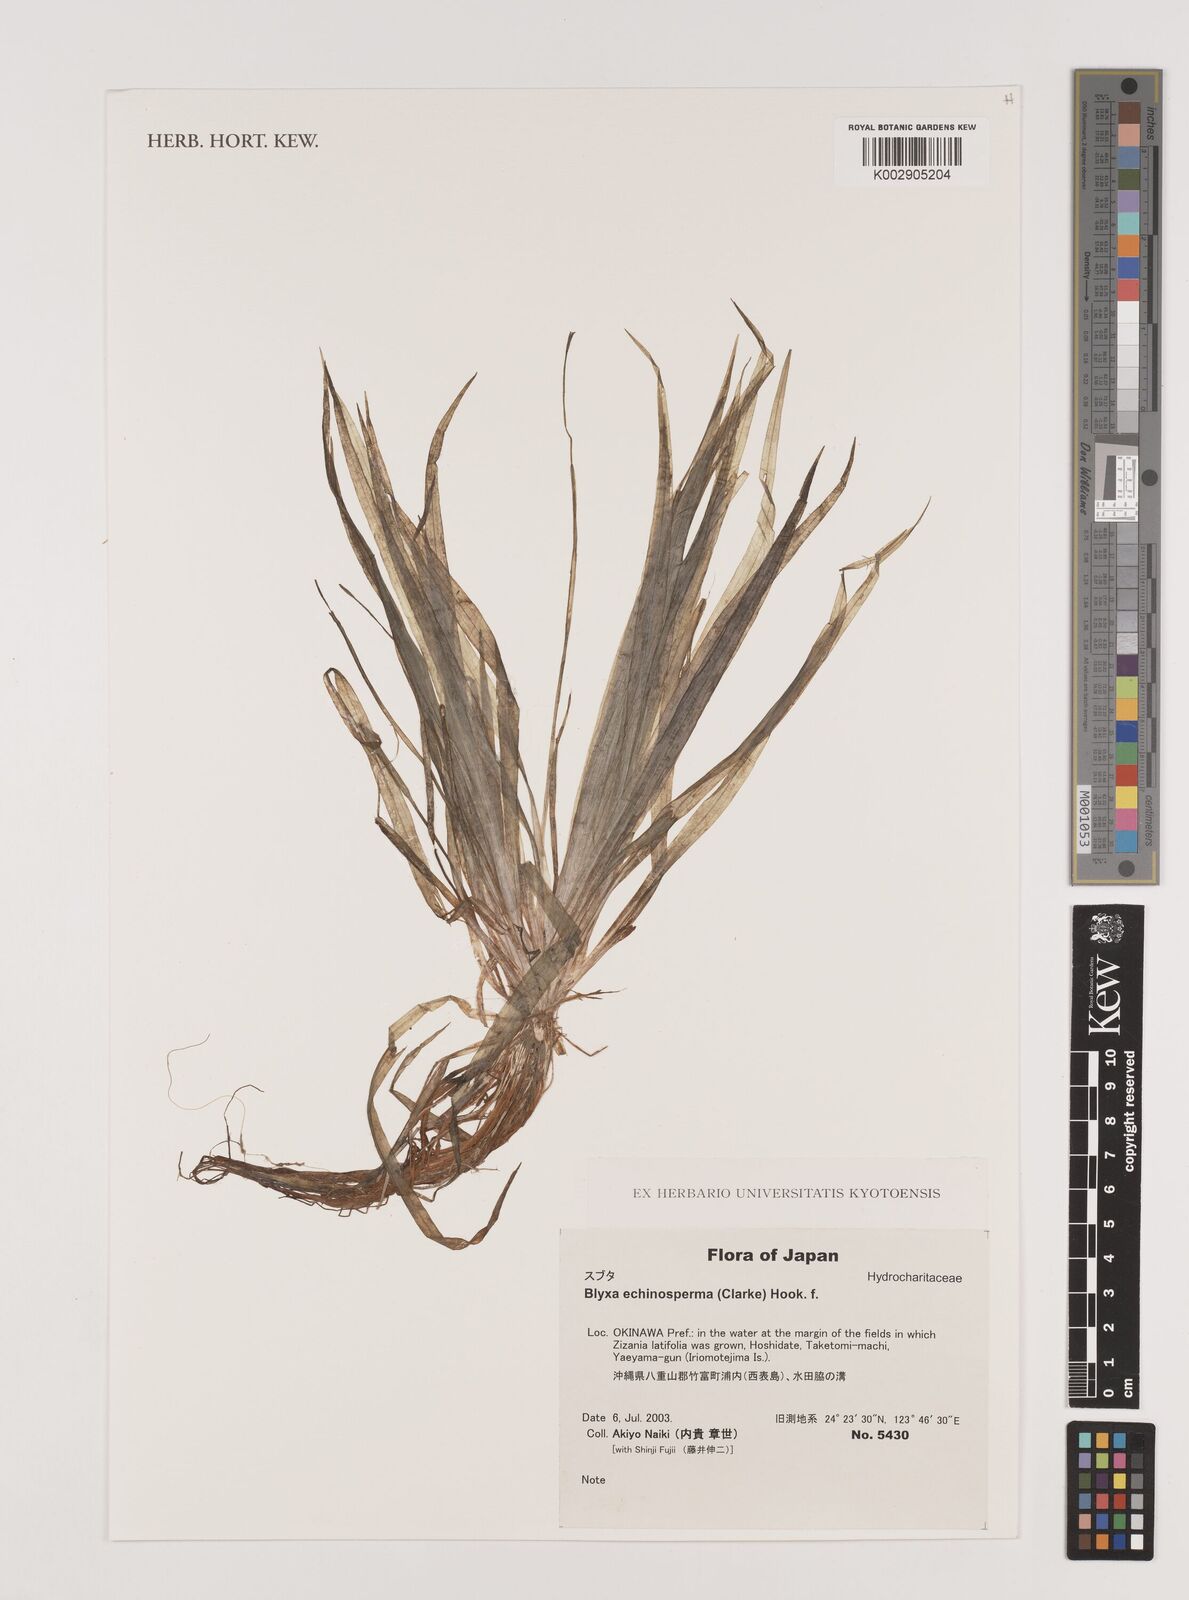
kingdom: Plantae
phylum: Tracheophyta
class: Liliopsida
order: Alismatales
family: Hydrocharitaceae
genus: Blyxa
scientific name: Blyxa echinosperma
